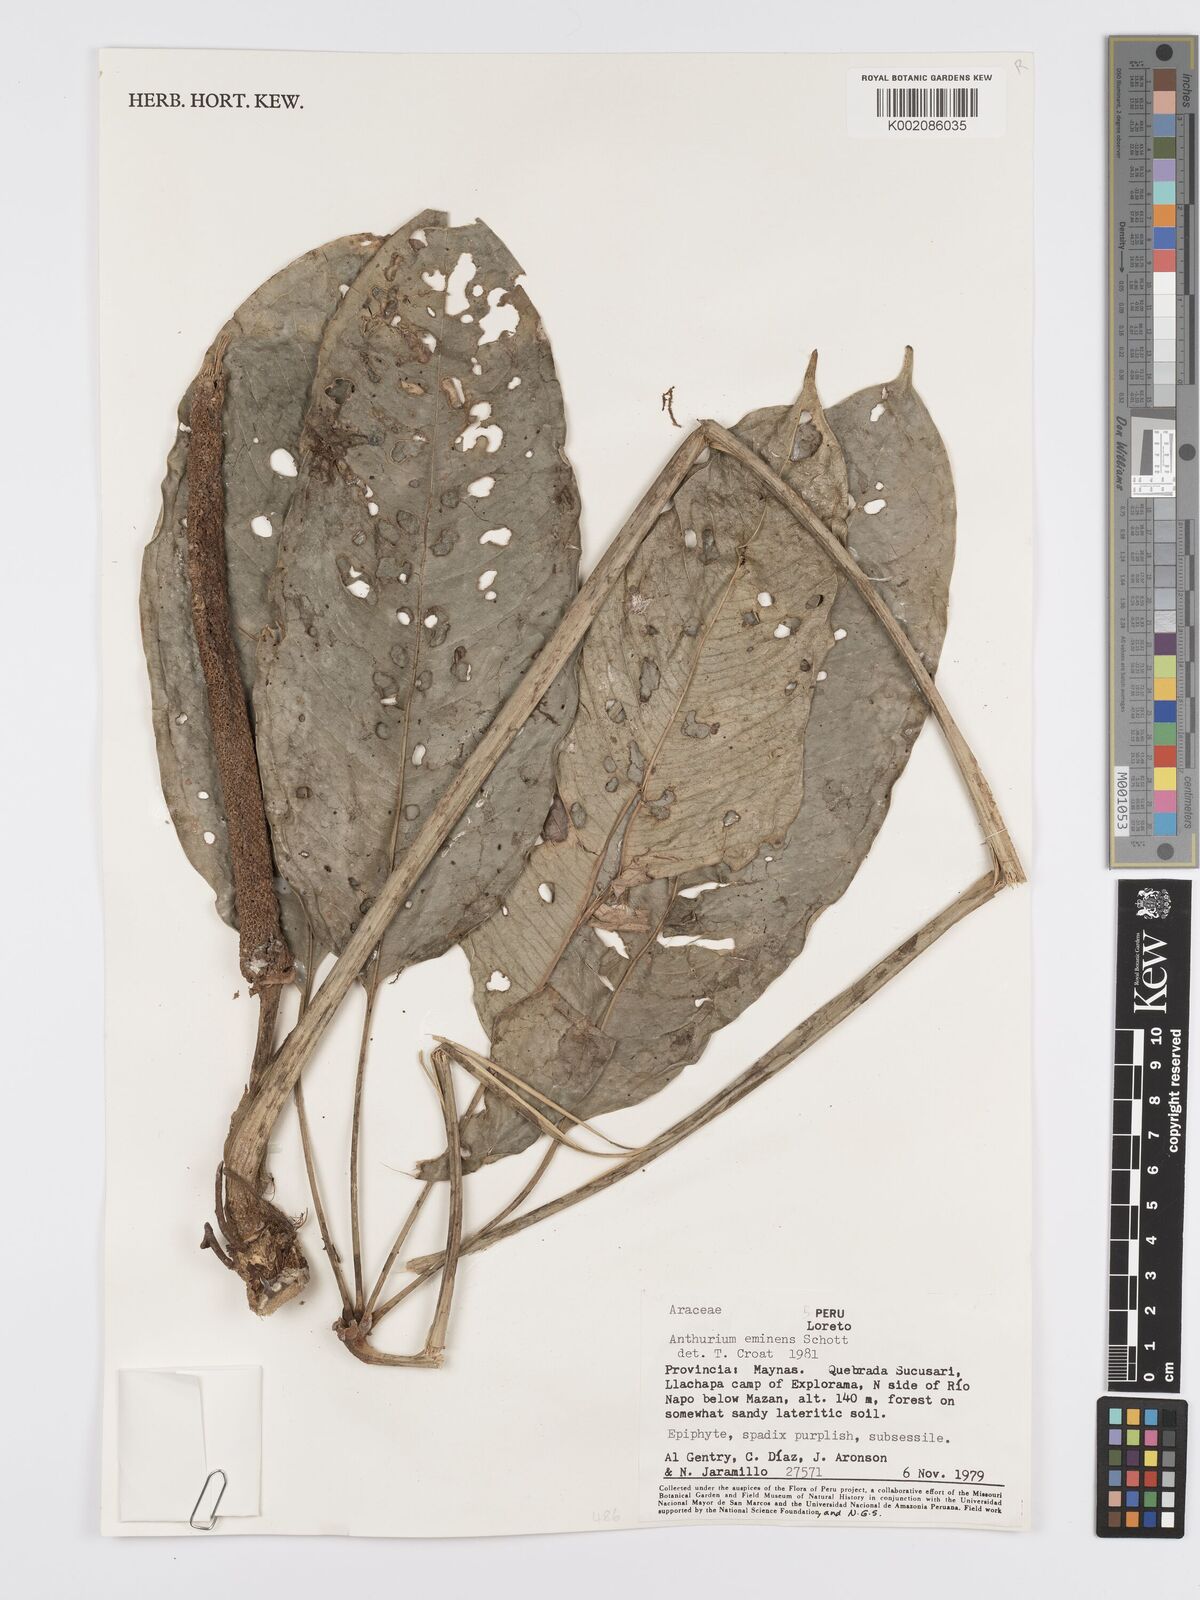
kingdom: Plantae
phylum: Tracheophyta
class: Liliopsida
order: Alismatales
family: Araceae
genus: Anthurium
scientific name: Anthurium eminens
